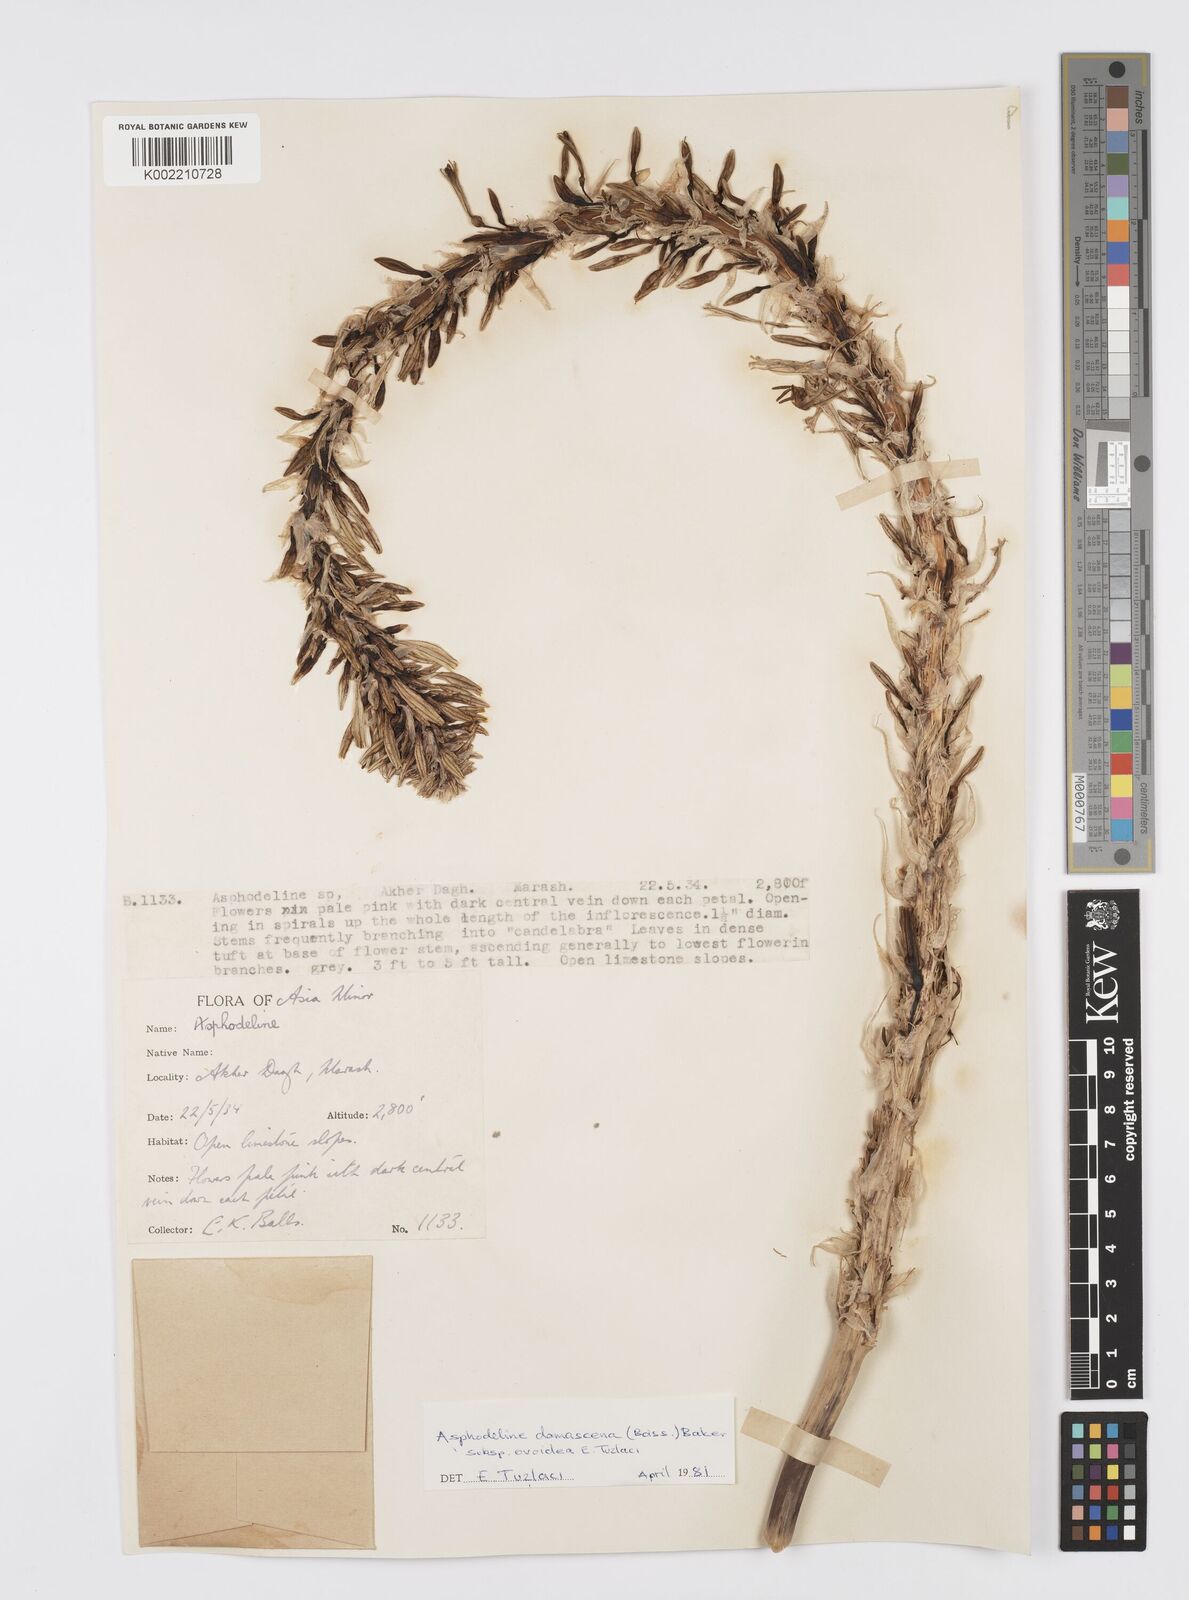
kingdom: Plantae
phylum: Tracheophyta
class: Liliopsida
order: Asparagales
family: Asphodelaceae
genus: Asphodeline
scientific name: Asphodeline damascena
